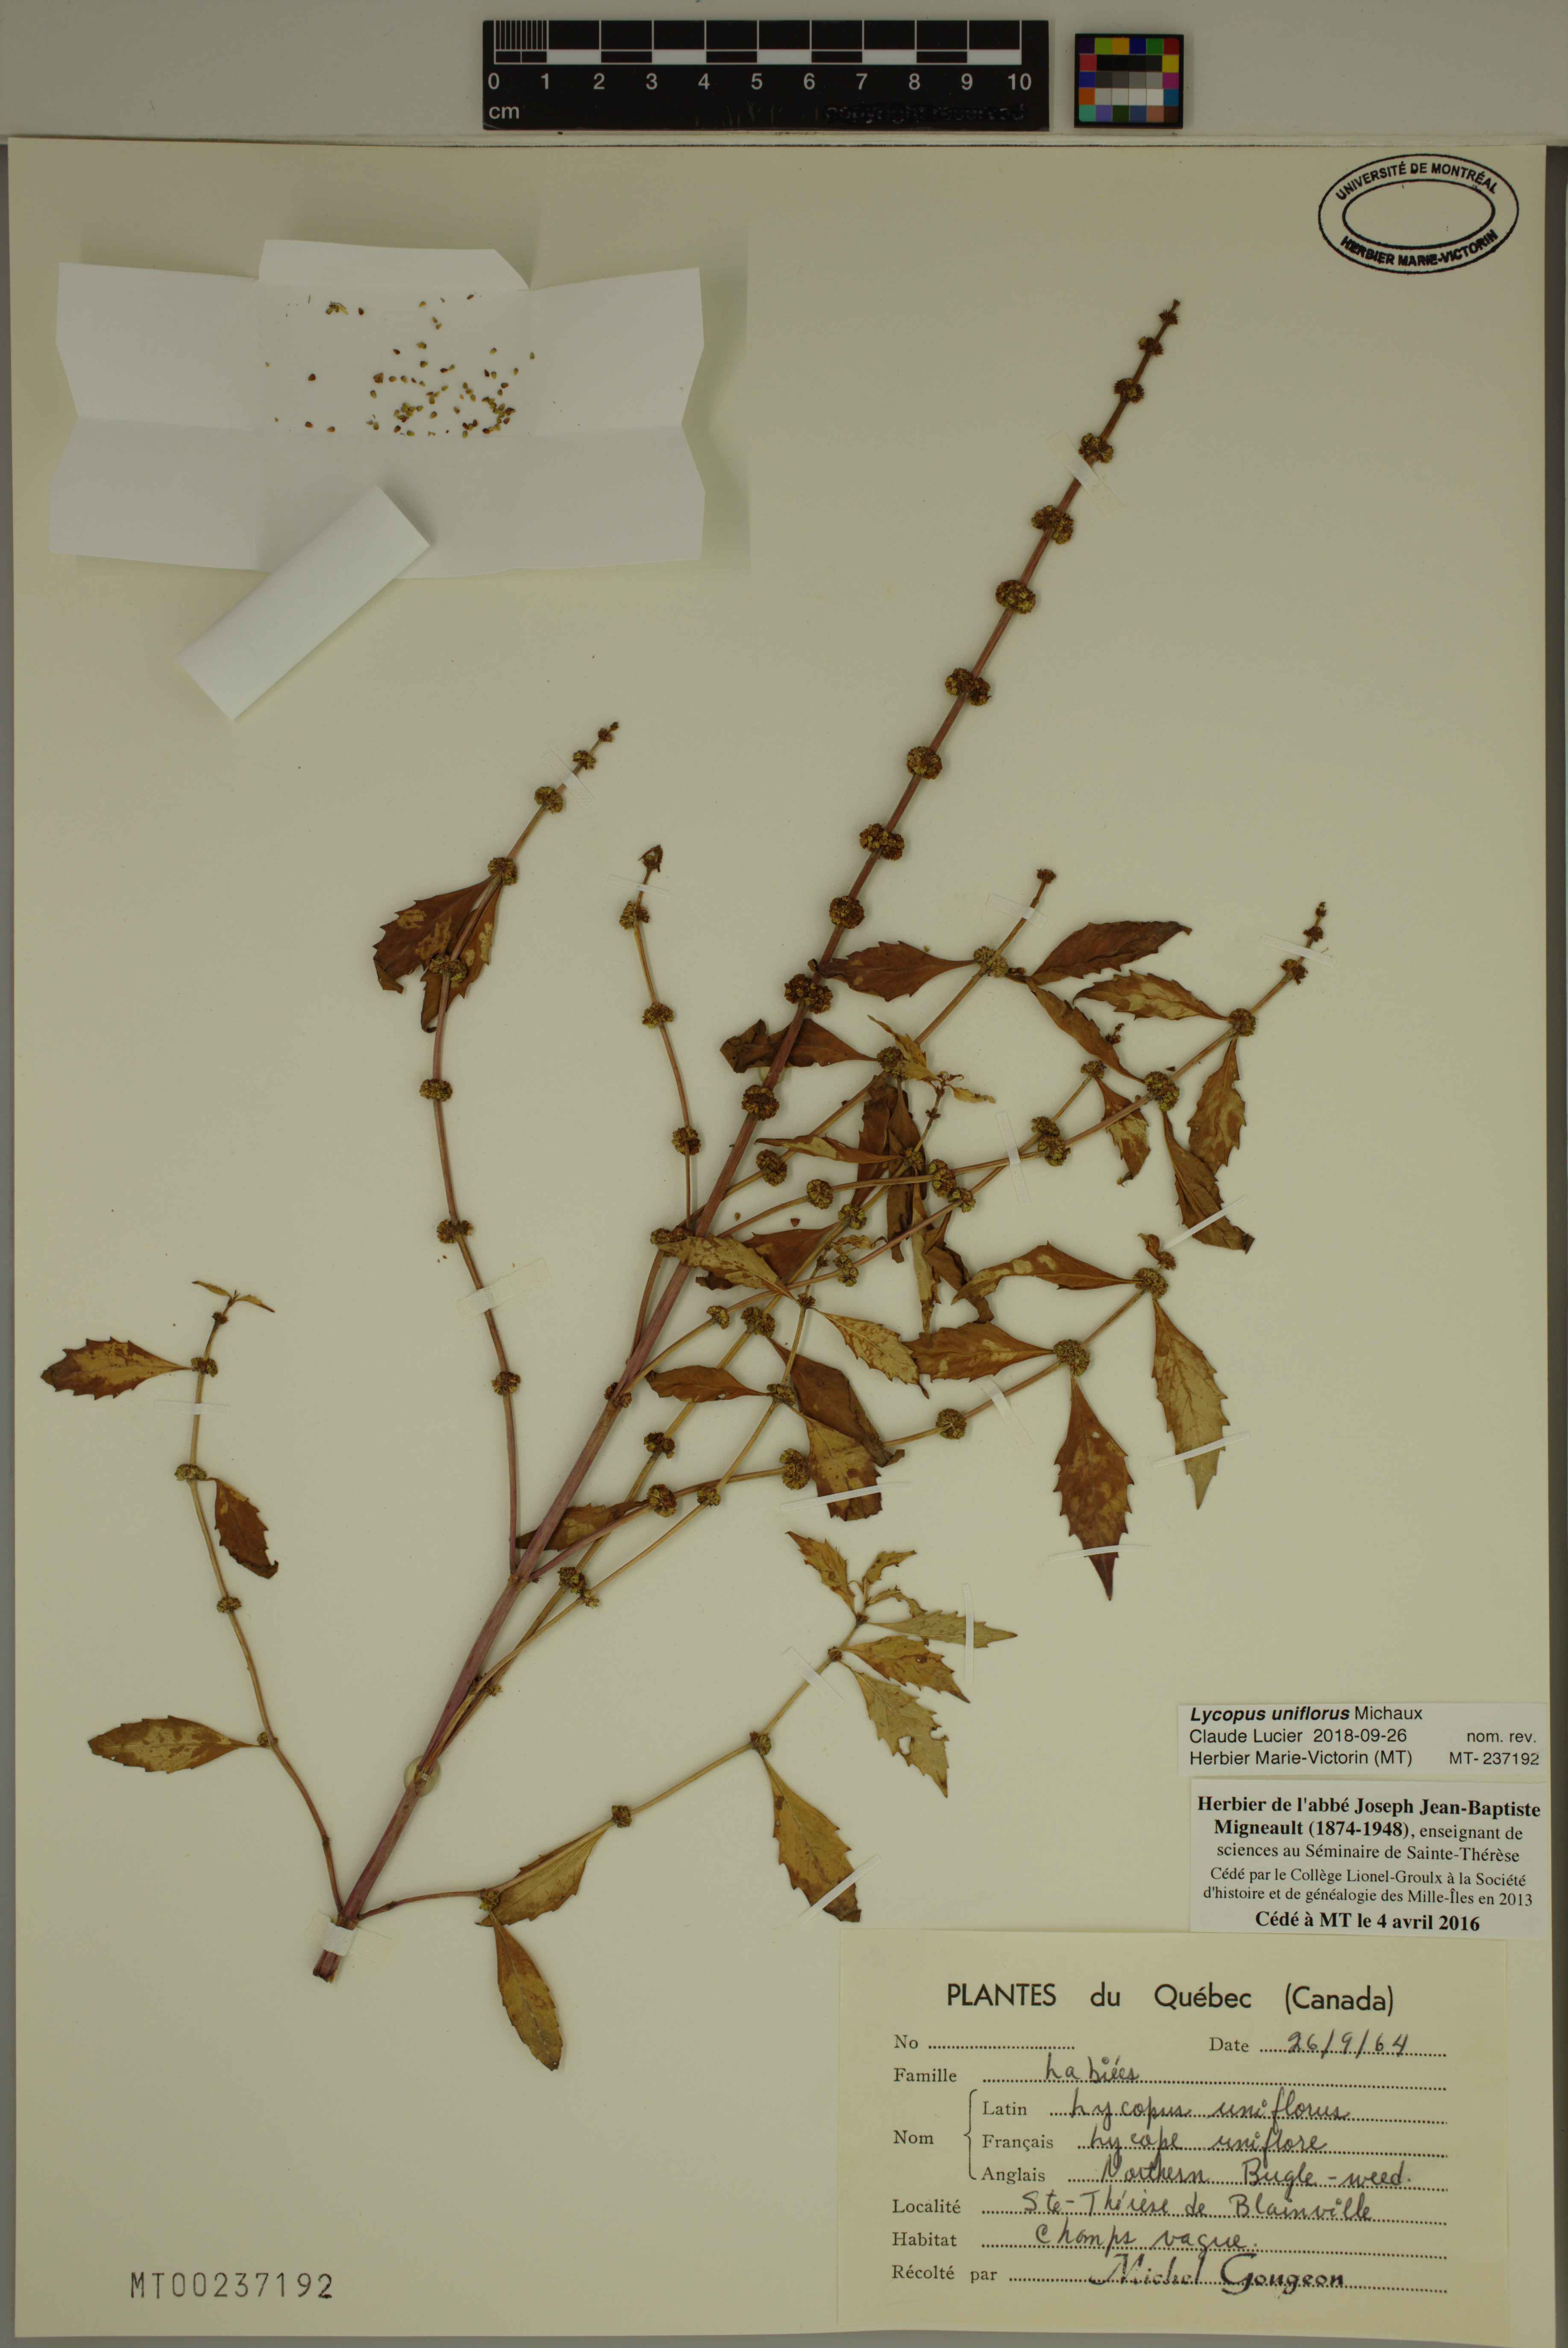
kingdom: Plantae
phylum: Tracheophyta
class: Magnoliopsida
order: Lamiales
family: Lamiaceae
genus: Lycopus
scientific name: Lycopus uniflorus
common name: Northern bugleweed
